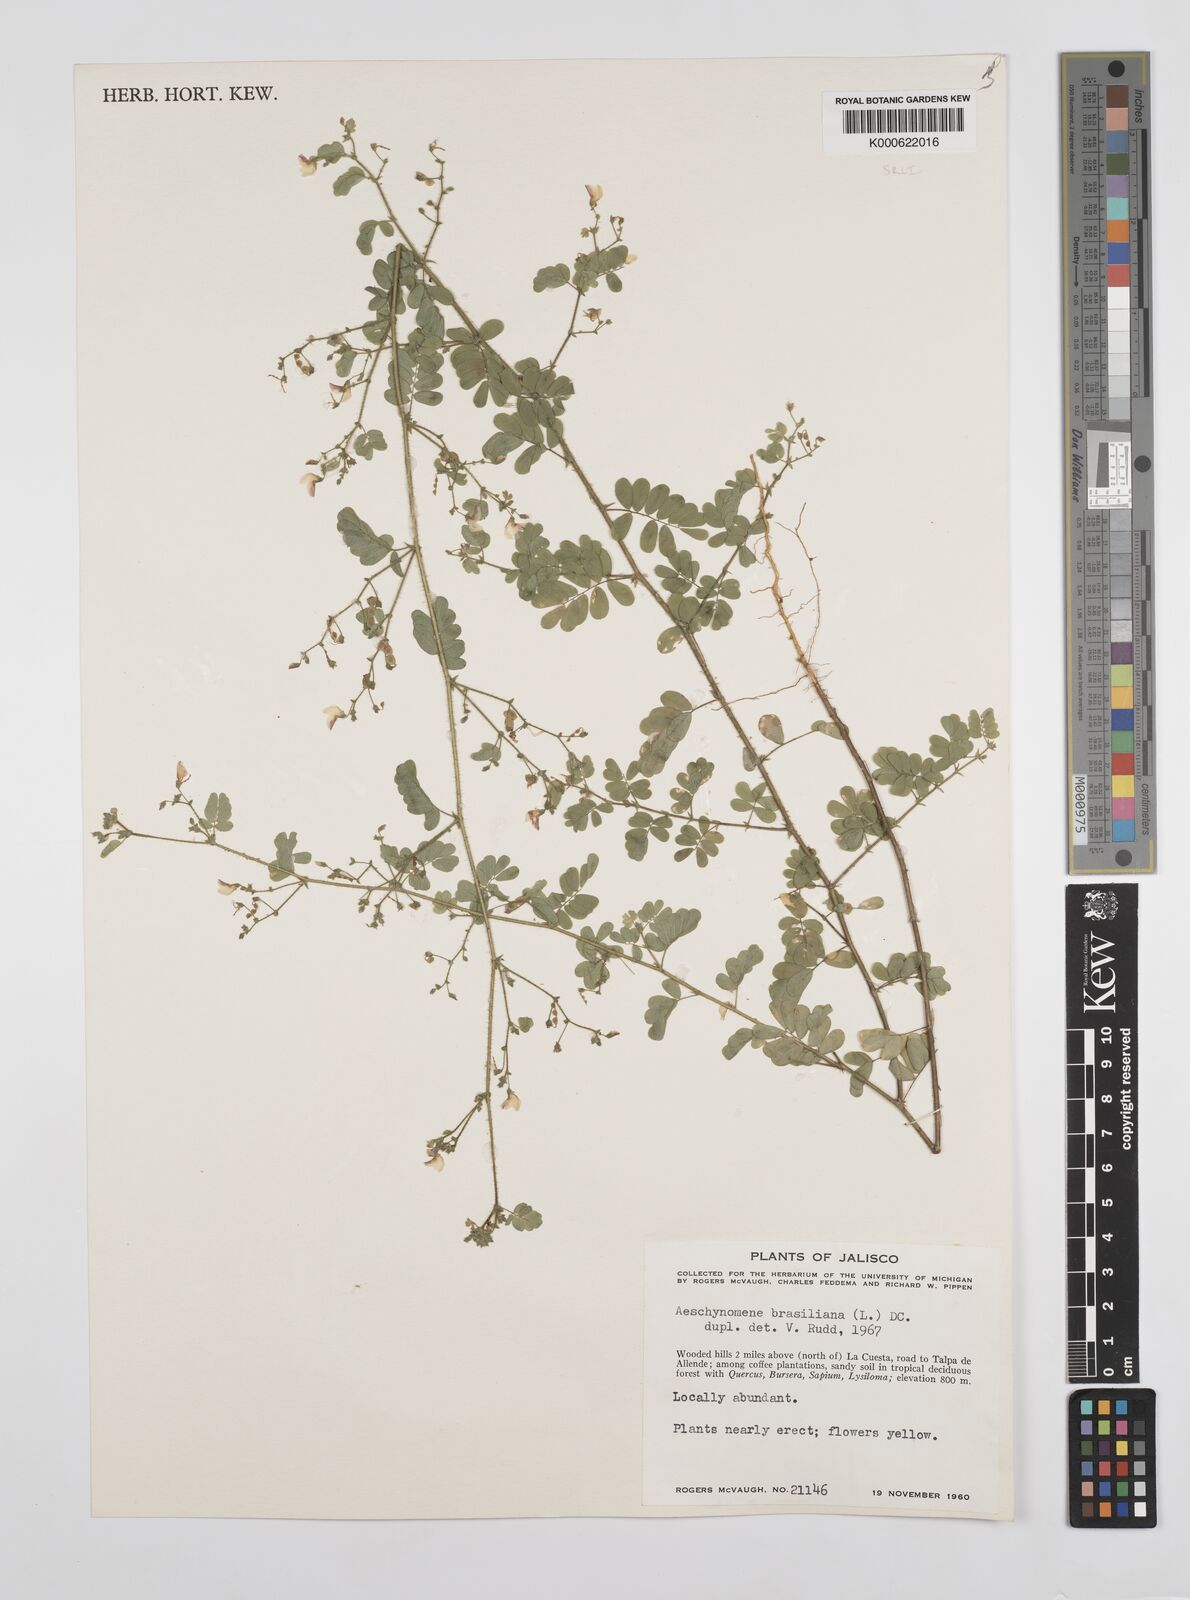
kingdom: Plantae
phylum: Tracheophyta
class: Magnoliopsida
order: Fabales
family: Fabaceae
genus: Ctenodon
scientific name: Ctenodon brasilianus
